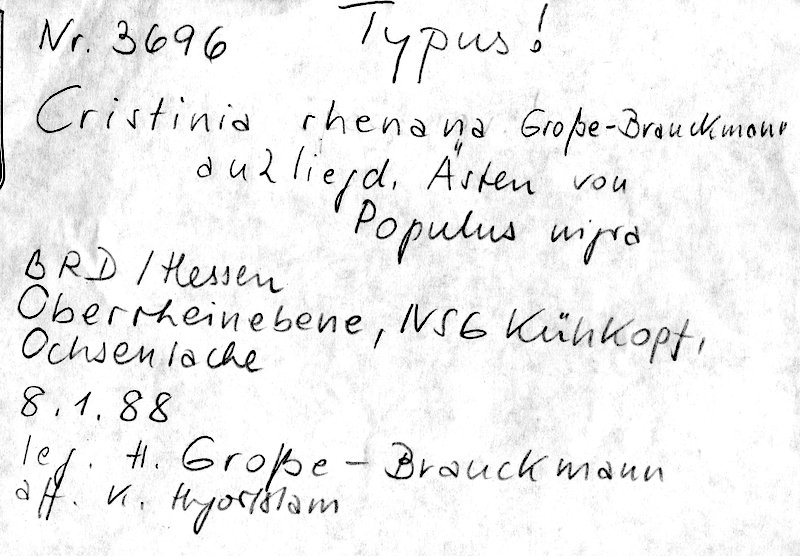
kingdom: Plantae
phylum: Tracheophyta
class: Magnoliopsida
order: Malpighiales
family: Salicaceae
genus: Populus
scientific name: Populus nigra
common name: Black poplar
